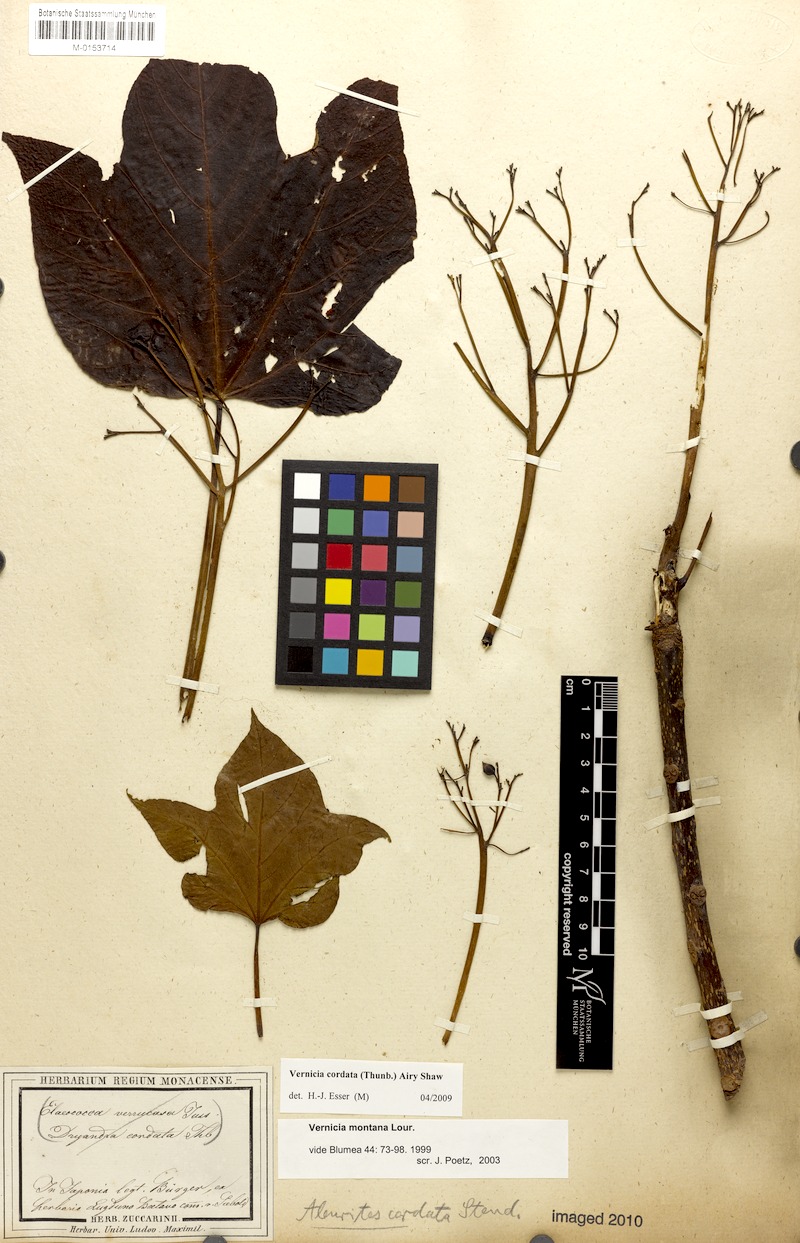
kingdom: Plantae
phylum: Tracheophyta
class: Magnoliopsida
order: Malpighiales
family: Euphorbiaceae
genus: Vernicia
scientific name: Vernicia cordata
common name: Japanese tung-oil-tree
